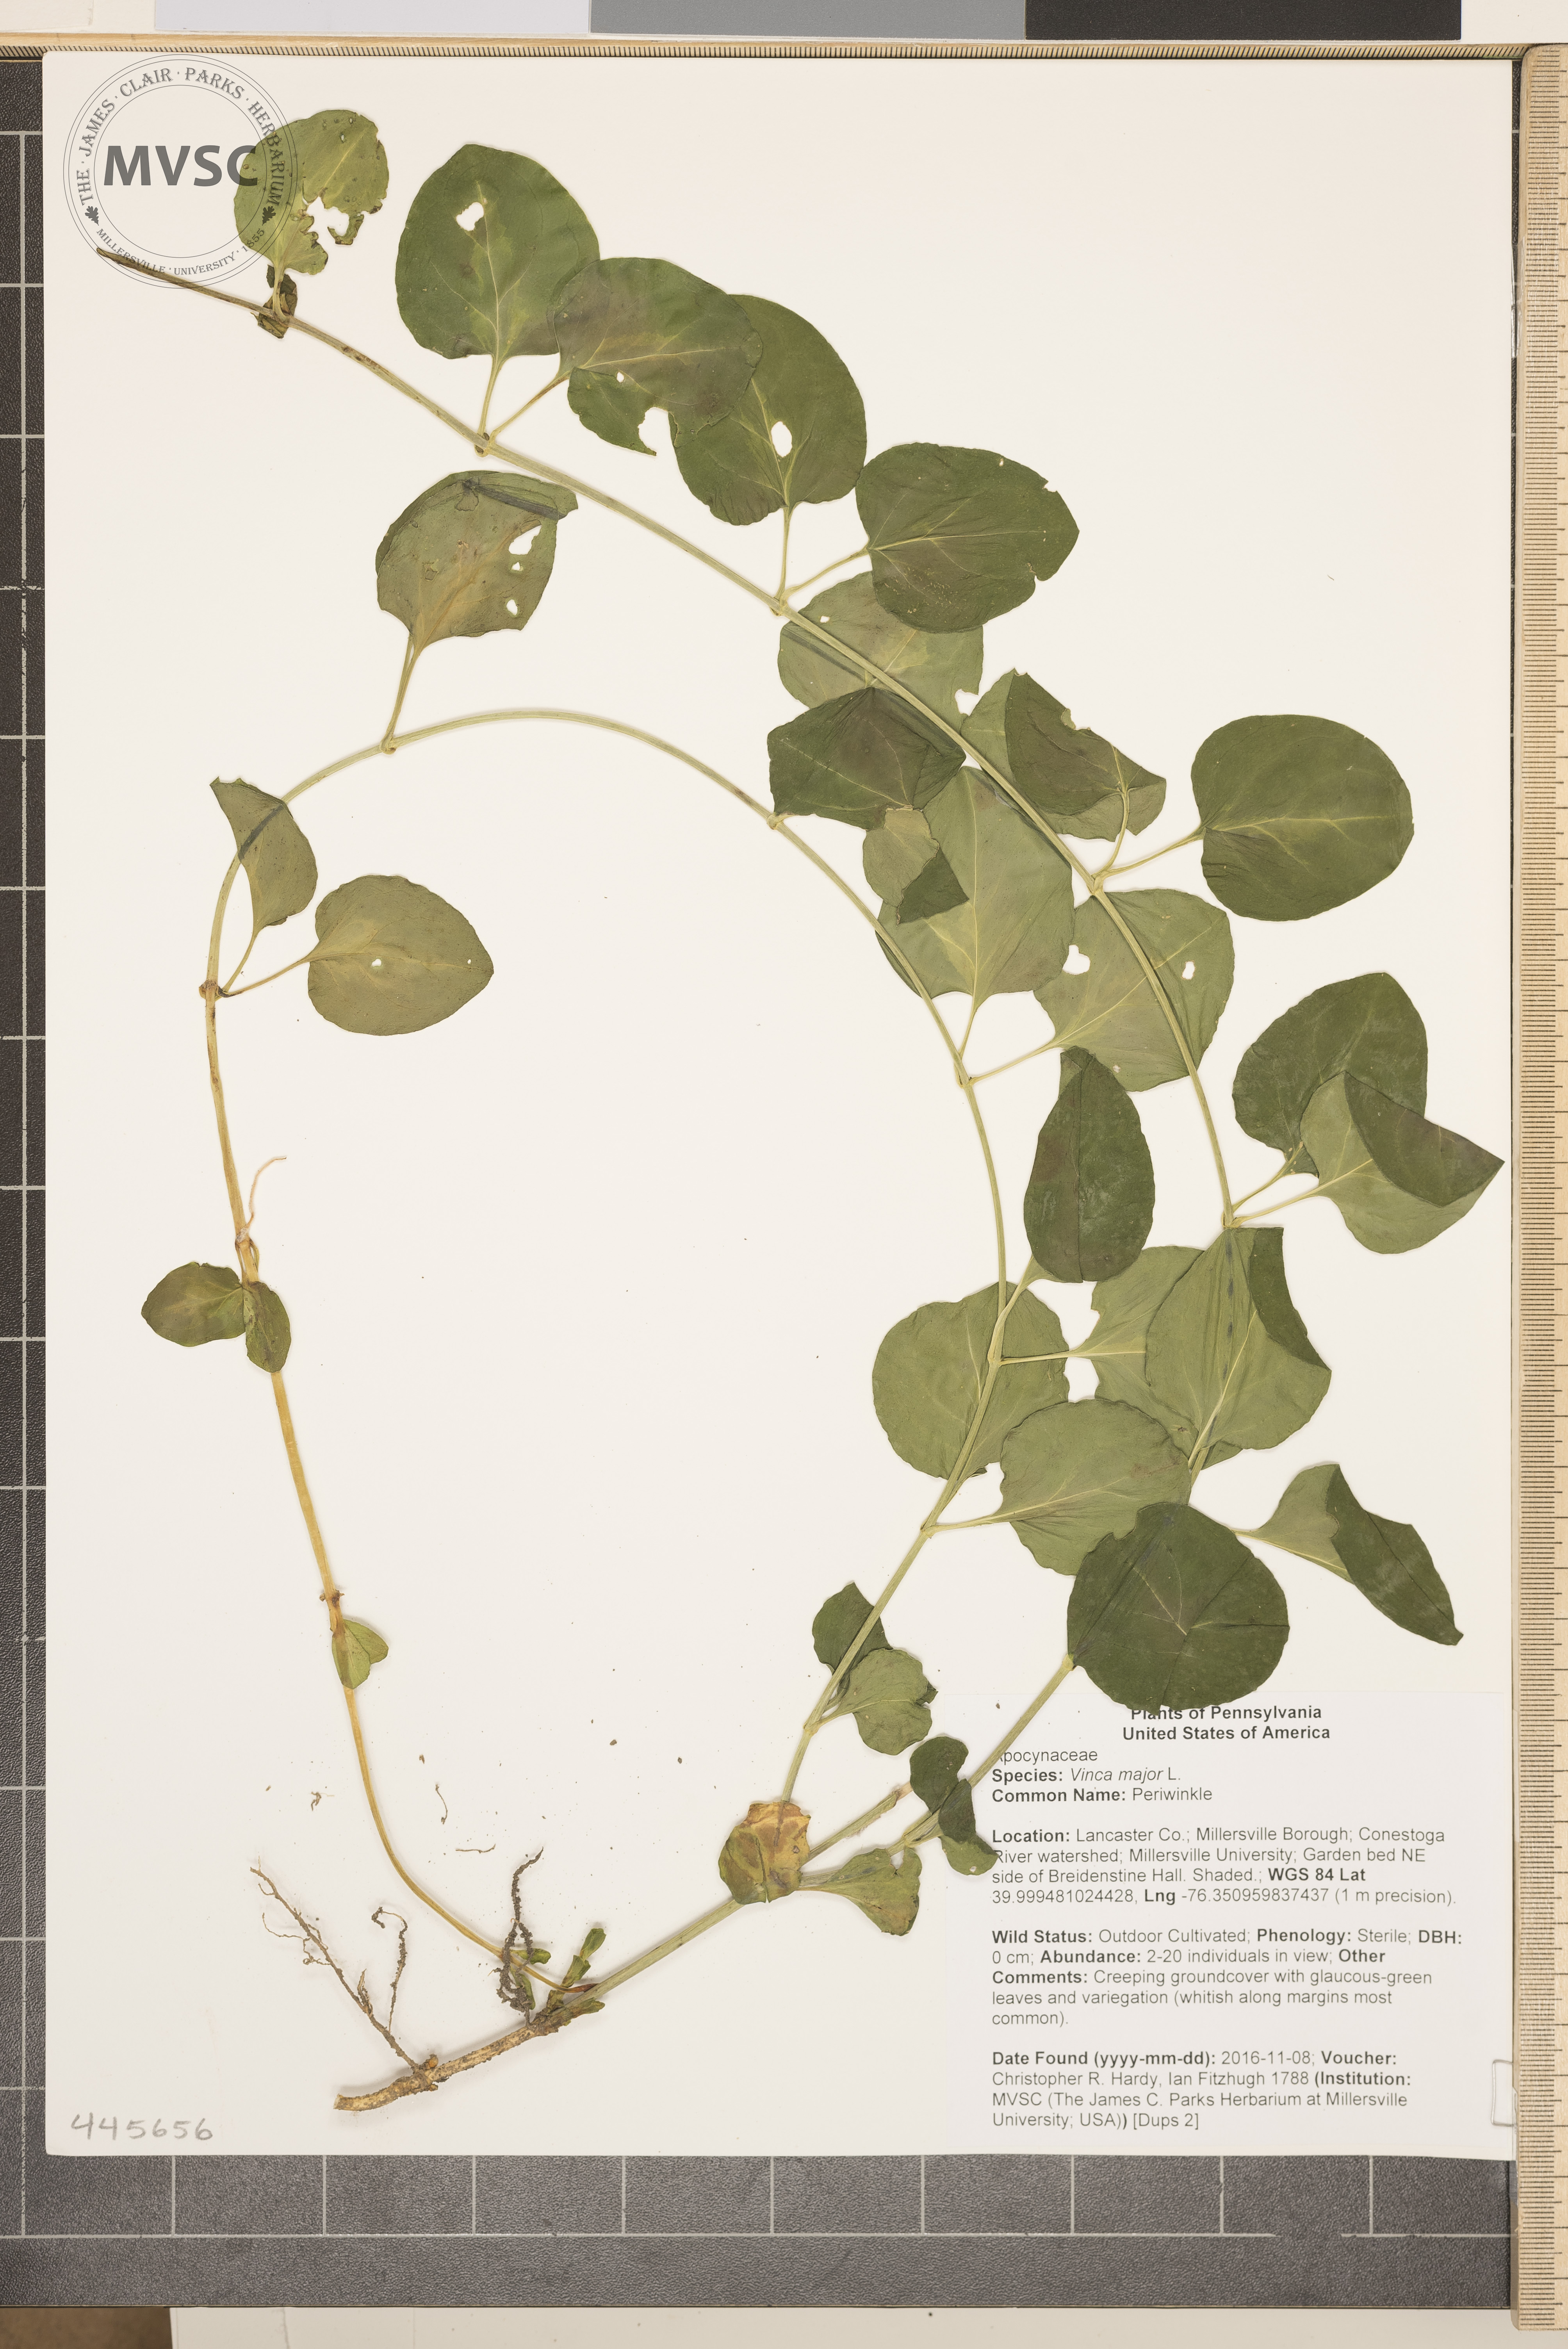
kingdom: Plantae
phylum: Tracheophyta
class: Magnoliopsida
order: Gentianales
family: Apocynaceae
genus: Vinca
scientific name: Vinca major
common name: Periwinkle
